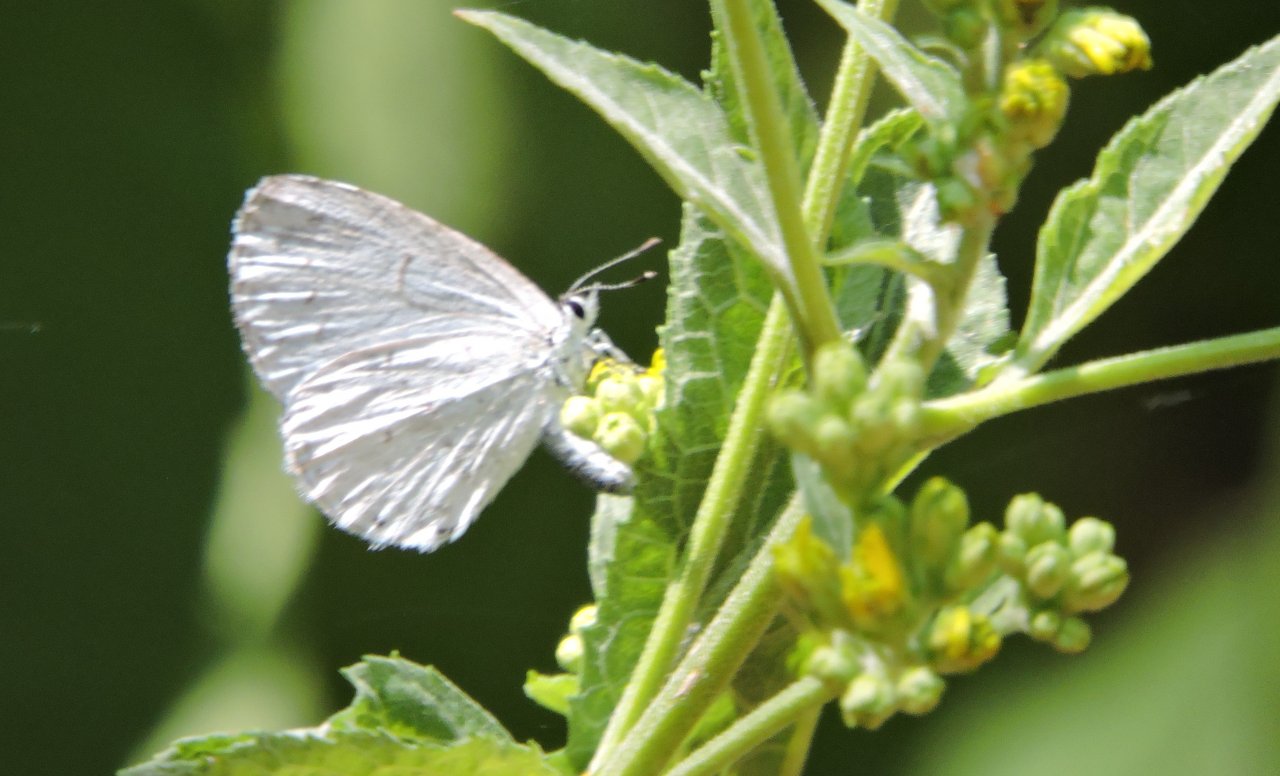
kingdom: Animalia
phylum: Arthropoda
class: Insecta
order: Lepidoptera
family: Lycaenidae
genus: Cyaniris
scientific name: Cyaniris neglecta
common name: Summer Azure
